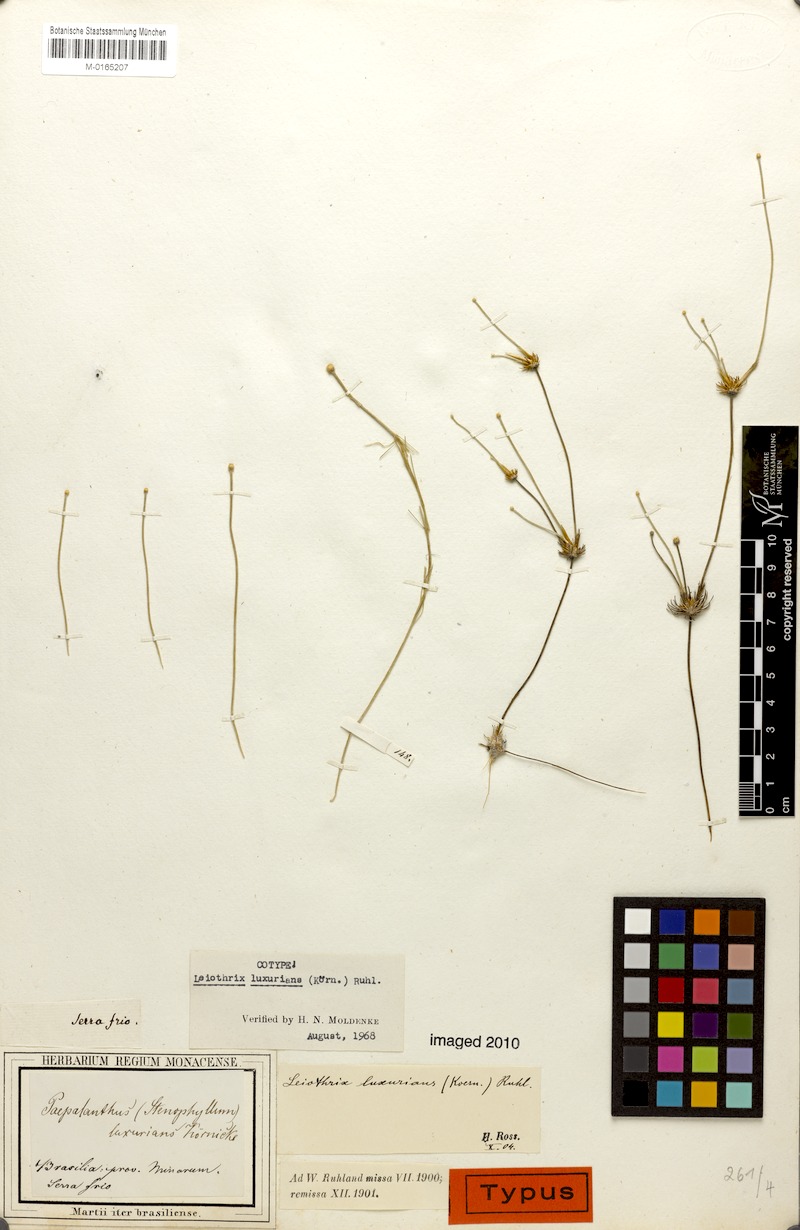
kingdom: Plantae
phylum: Tracheophyta
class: Liliopsida
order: Poales
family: Eriocaulaceae
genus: Leiothrix
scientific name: Leiothrix luxurians
